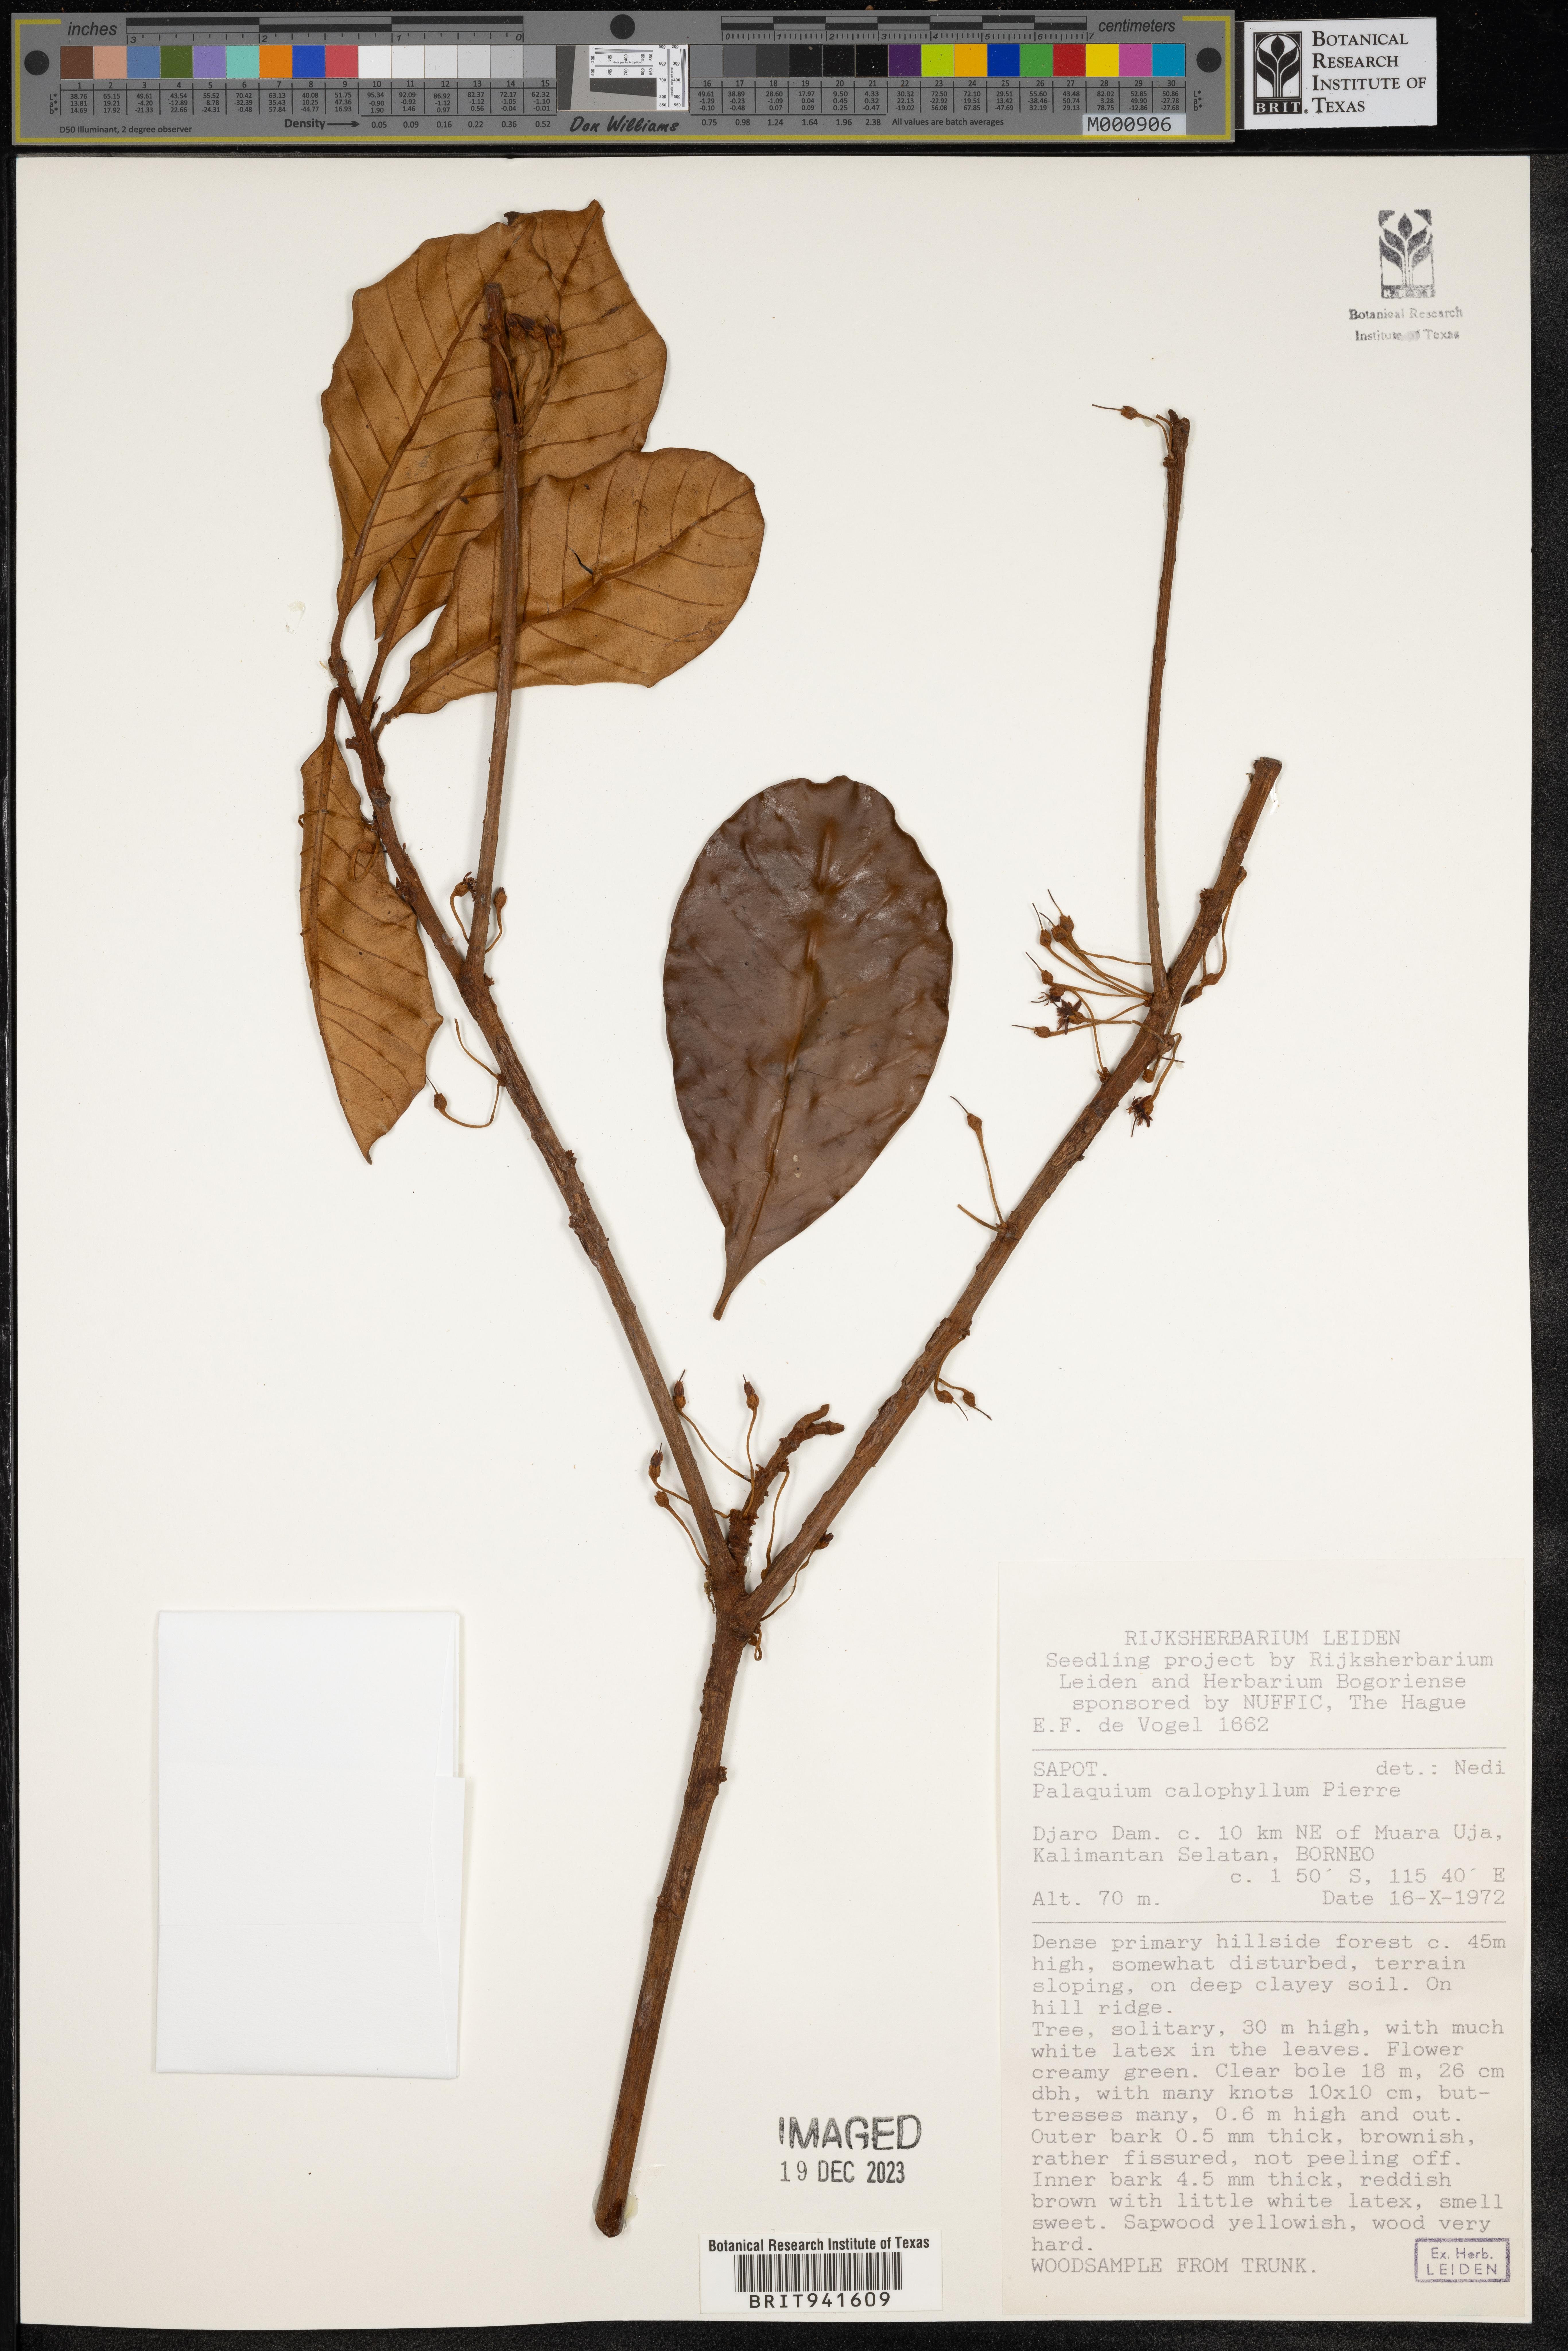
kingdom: Plantae
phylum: Tracheophyta
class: Magnoliopsida
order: Ericales
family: Sapotaceae
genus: Palaquium
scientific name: Palaquium
